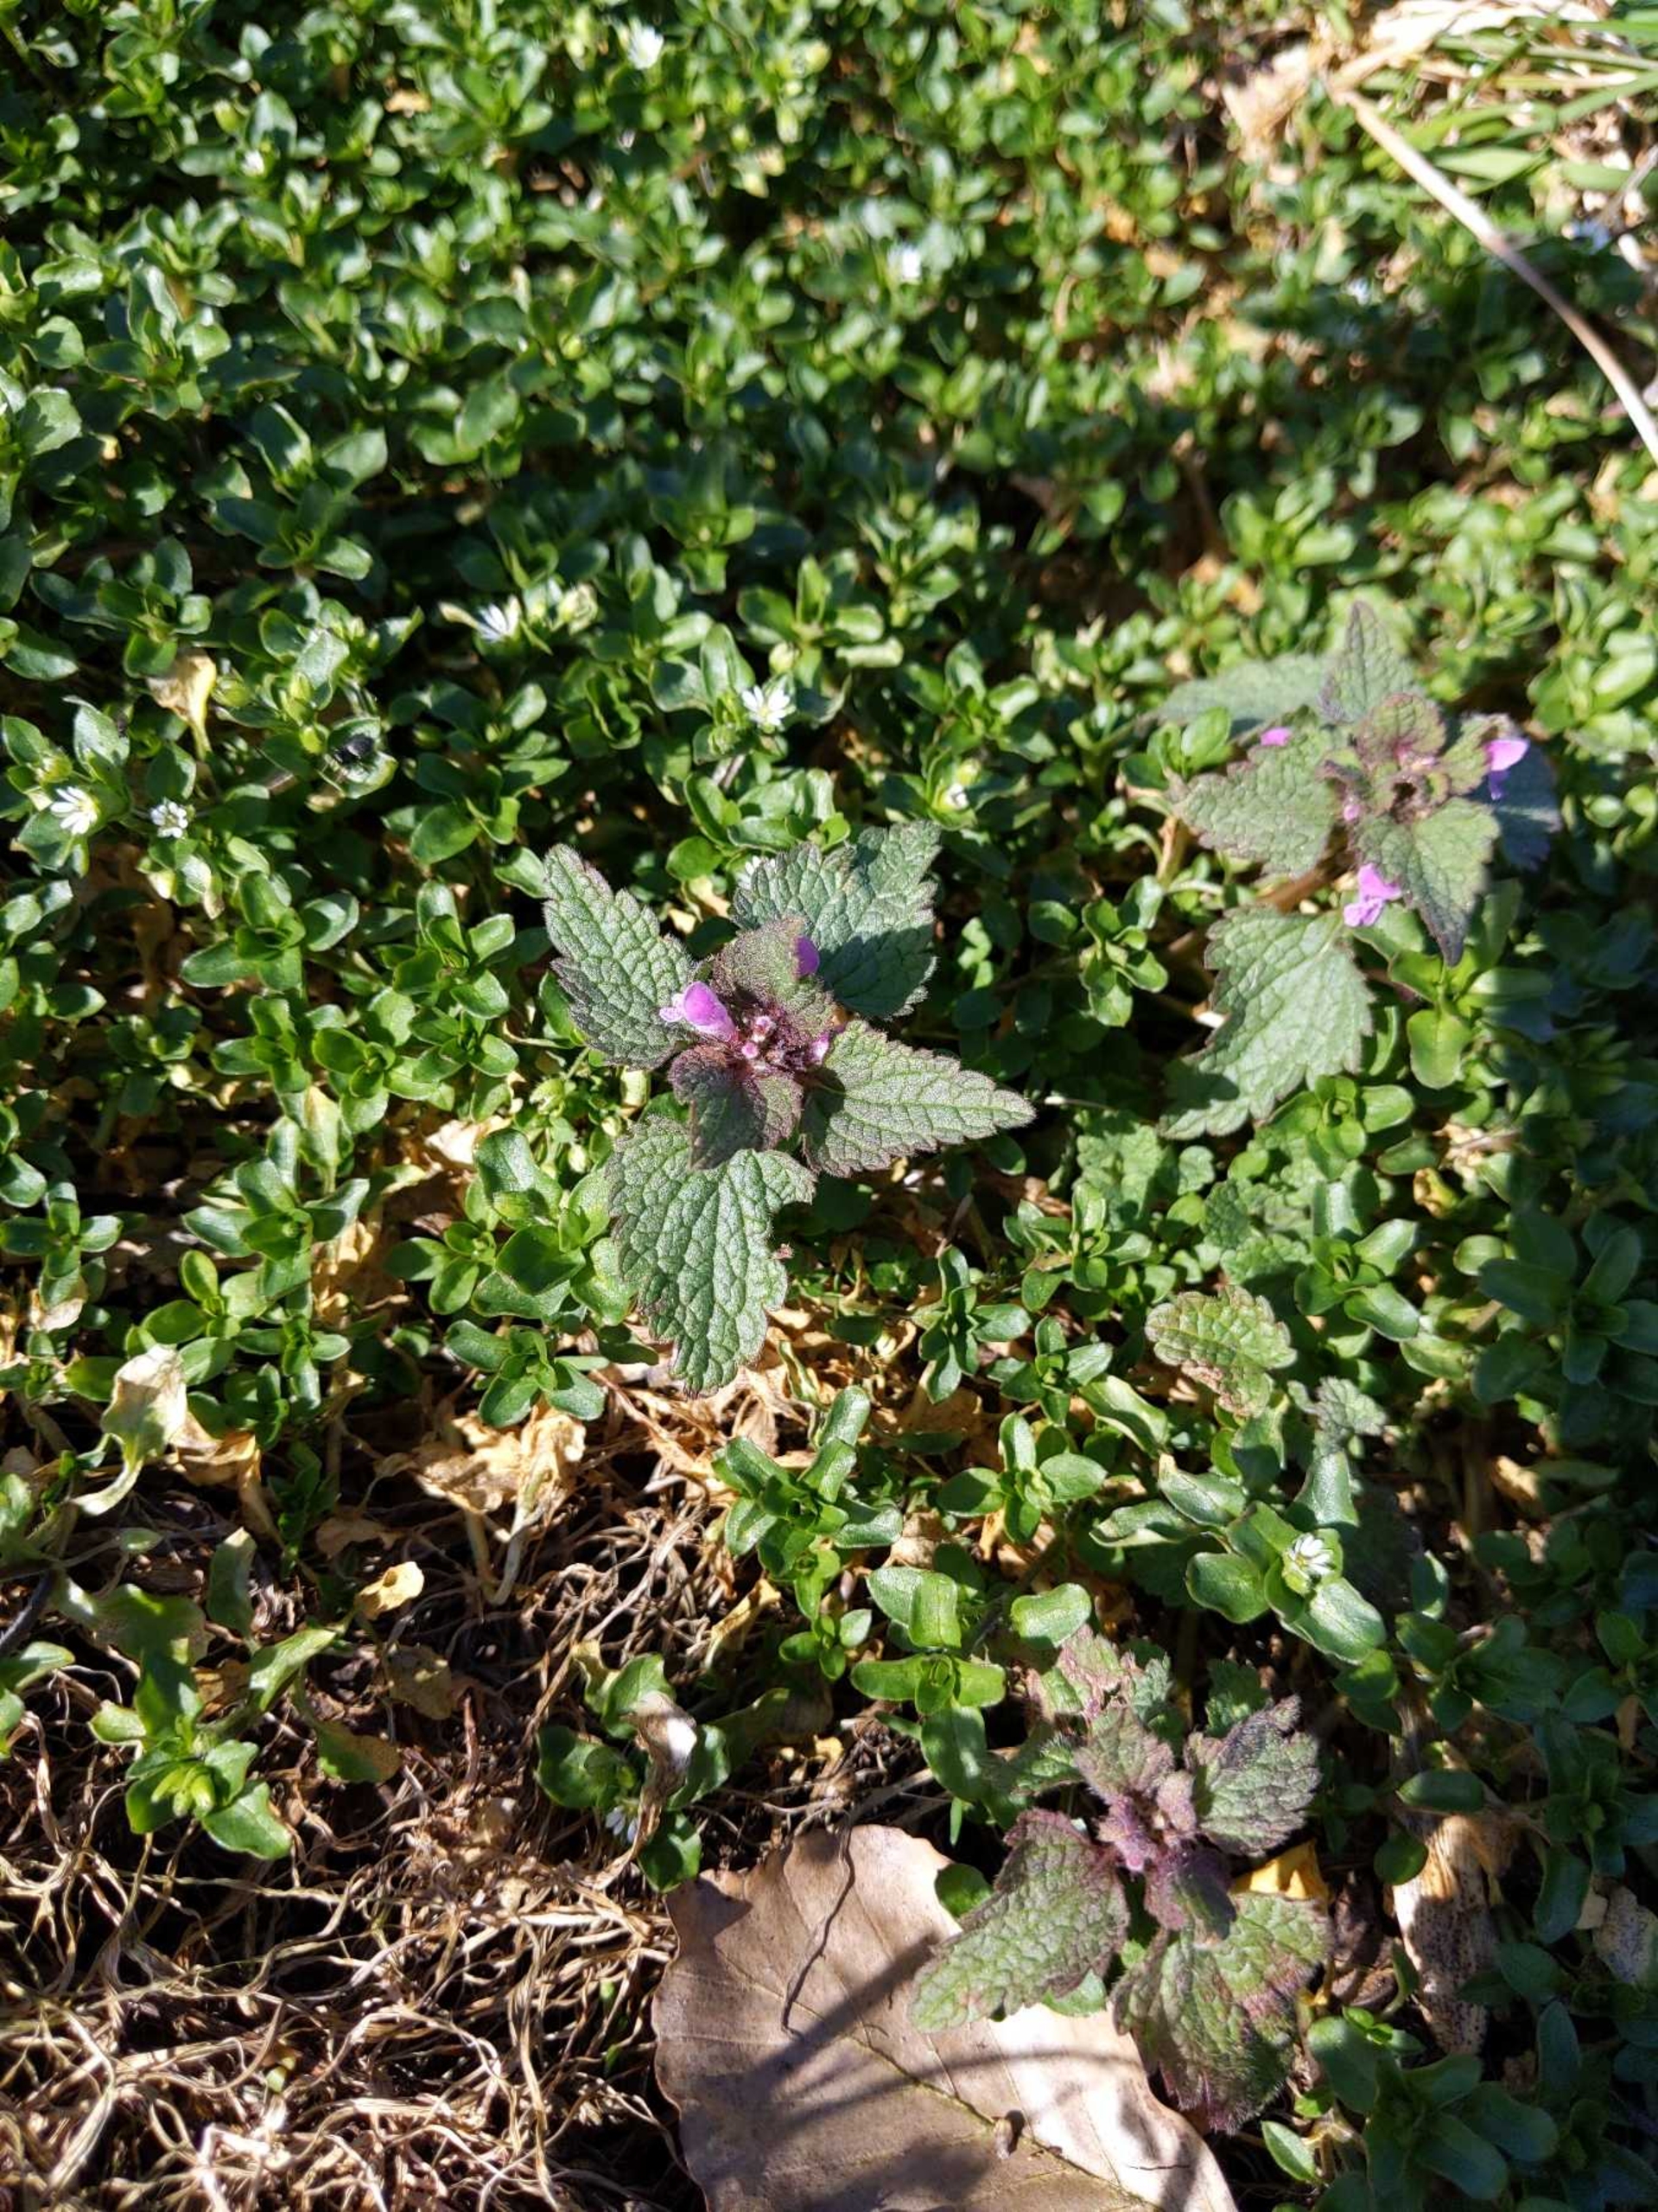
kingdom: Plantae
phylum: Tracheophyta
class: Magnoliopsida
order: Lamiales
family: Lamiaceae
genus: Lamium
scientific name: Lamium purpureum
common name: Rød tvetand
